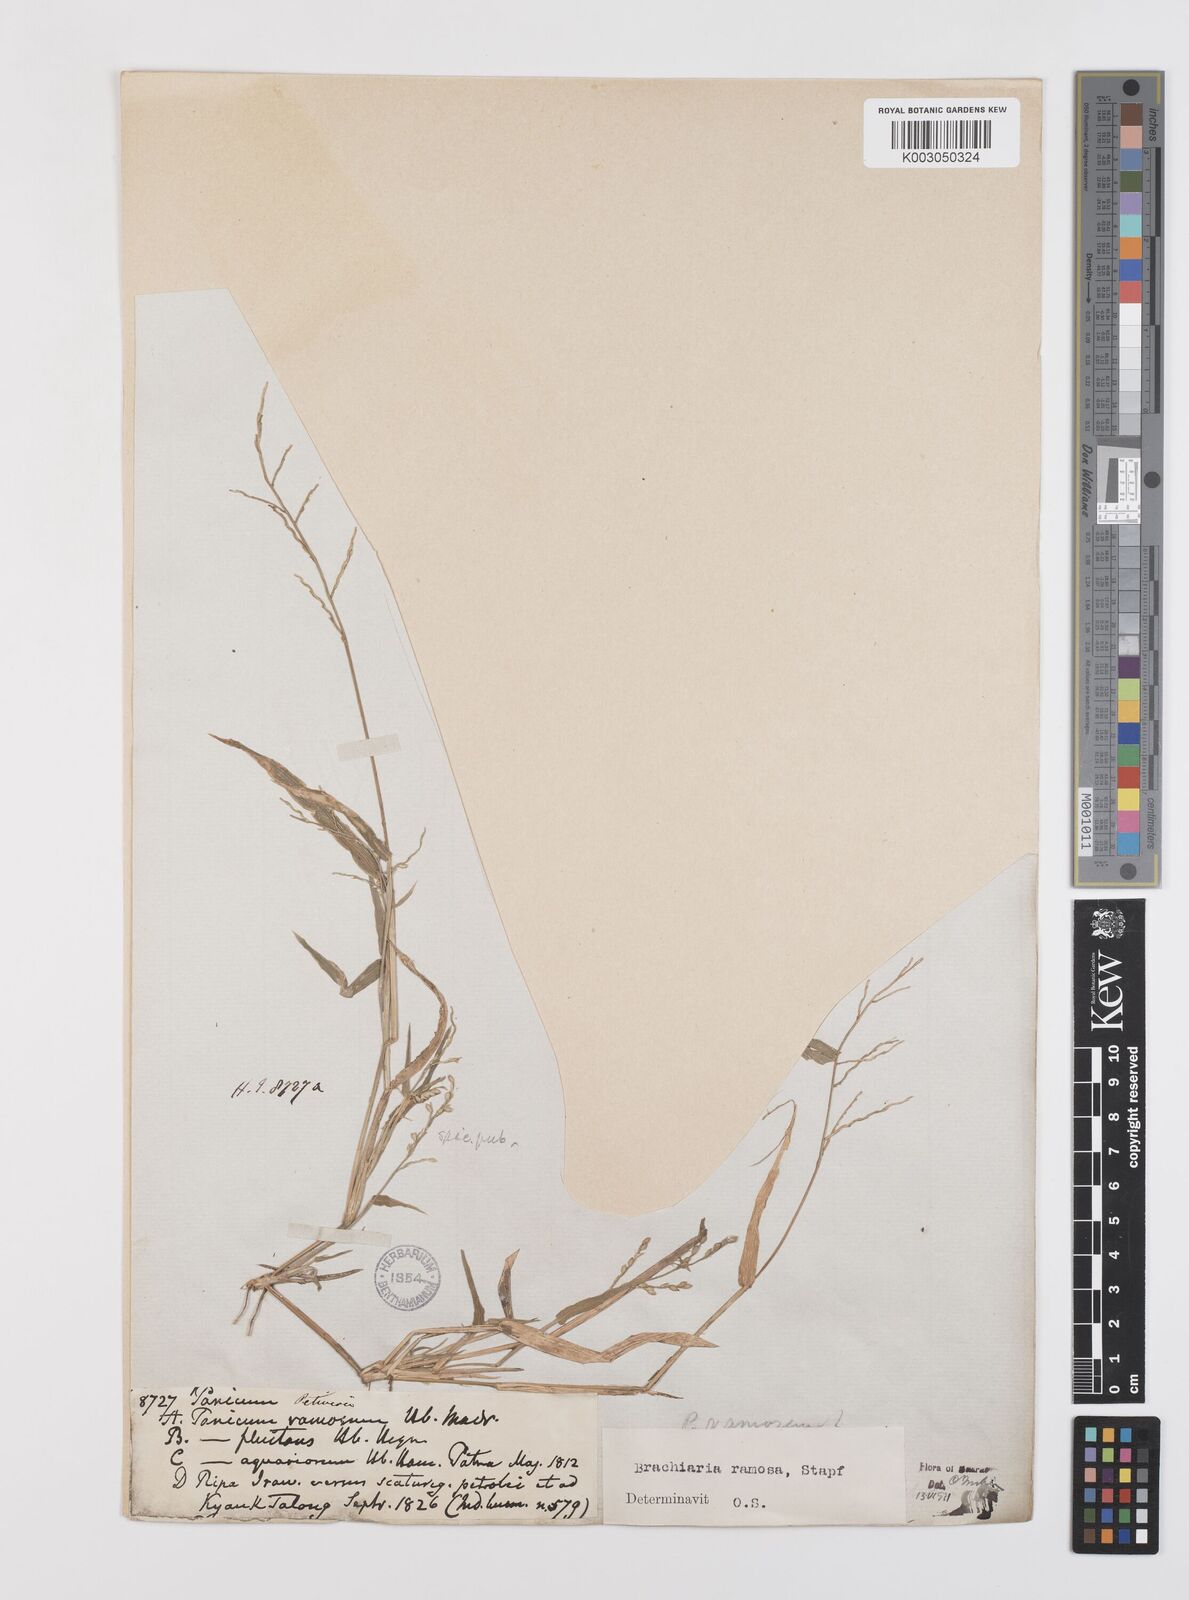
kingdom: Plantae
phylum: Tracheophyta
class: Liliopsida
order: Poales
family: Poaceae
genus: Urochloa
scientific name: Urochloa ramosa
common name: Browntop millet
